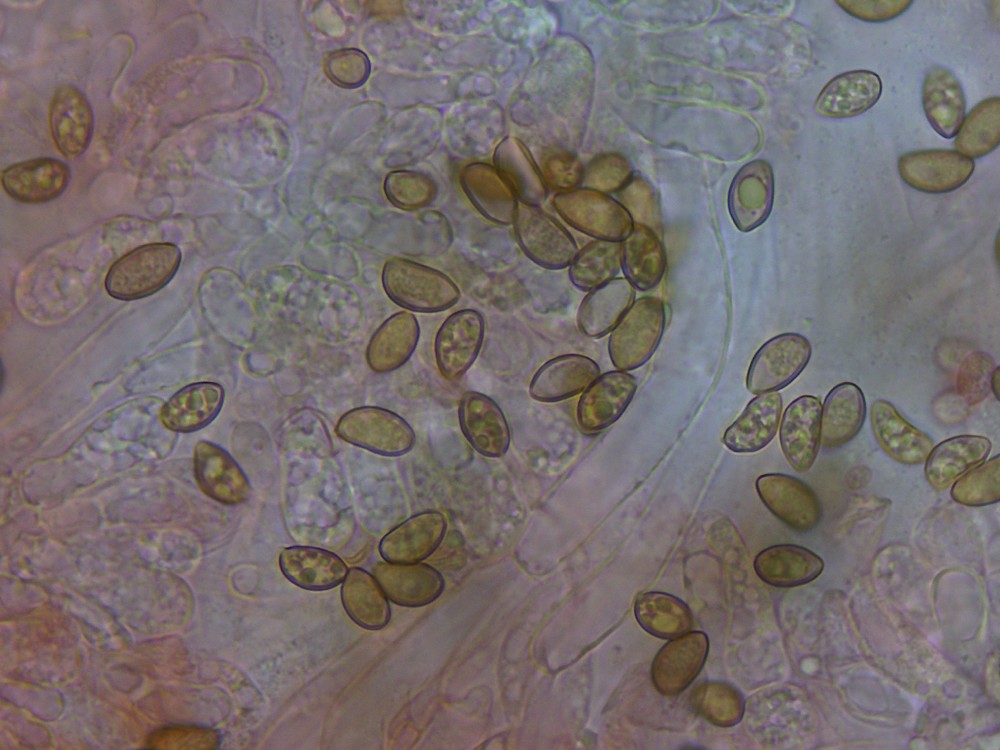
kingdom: Fungi
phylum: Basidiomycota
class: Agaricomycetes
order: Agaricales
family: Inocybaceae
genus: Inocybe
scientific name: Inocybe
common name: trævlhat
